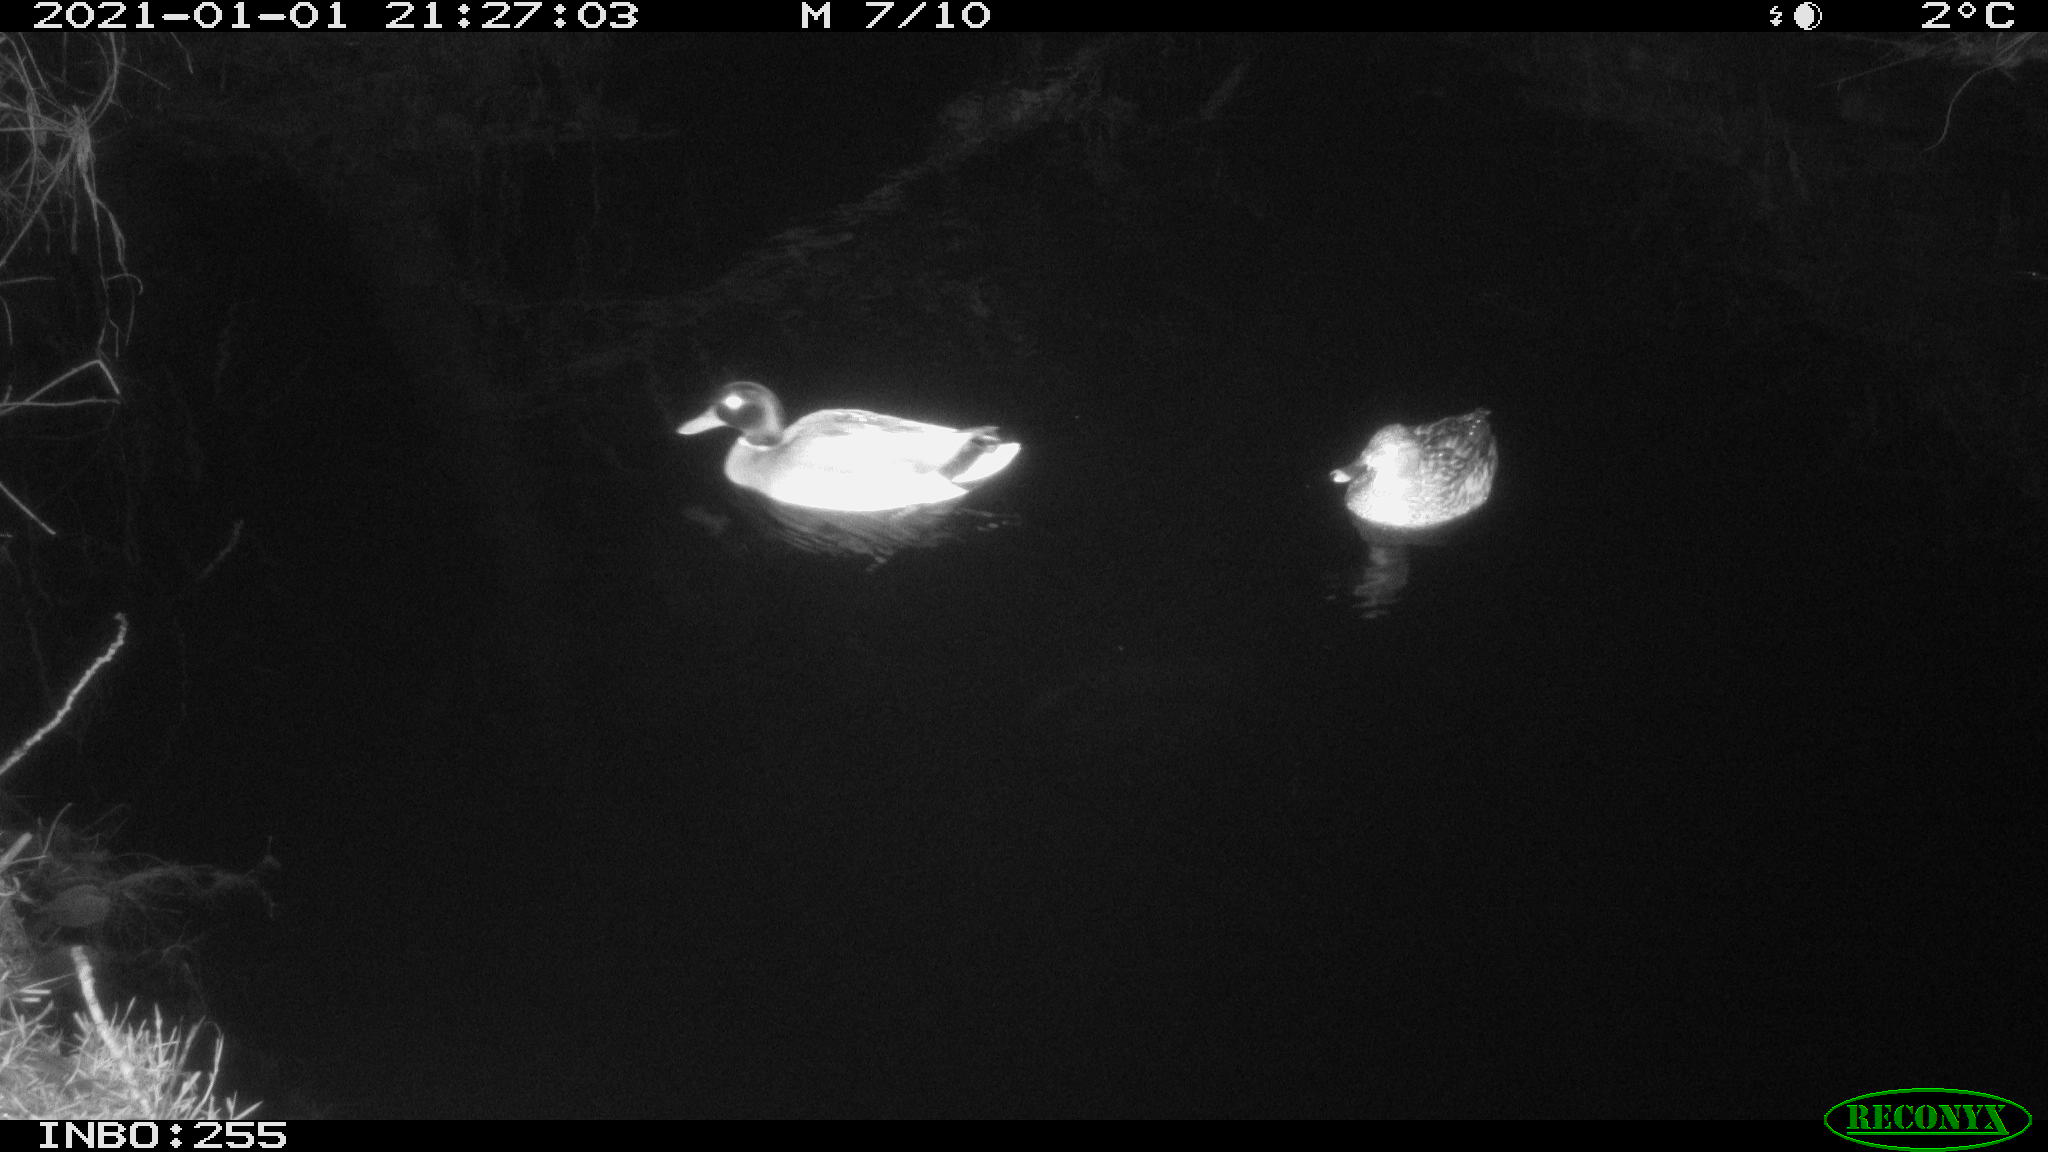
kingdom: Animalia
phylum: Chordata
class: Aves
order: Anseriformes
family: Anatidae
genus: Anas
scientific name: Anas platyrhynchos
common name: Mallard
